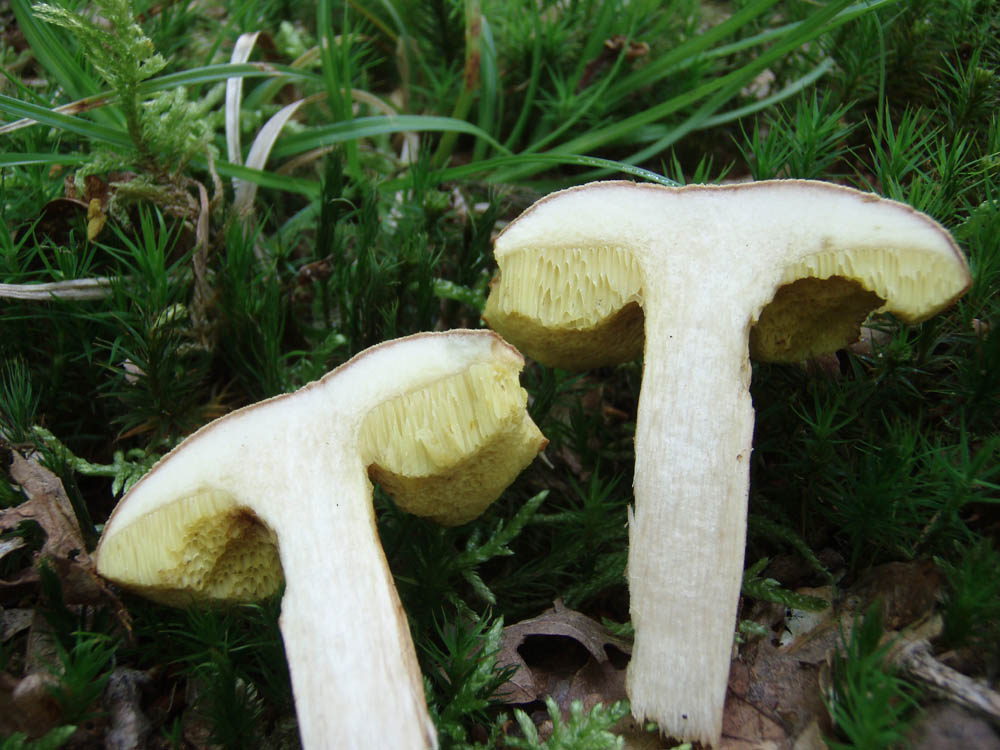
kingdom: Fungi
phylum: Basidiomycota
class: Agaricomycetes
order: Boletales
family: Boletaceae
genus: Xerocomus
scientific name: Xerocomus ferrugineus
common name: vaskeskinds-rørhat
